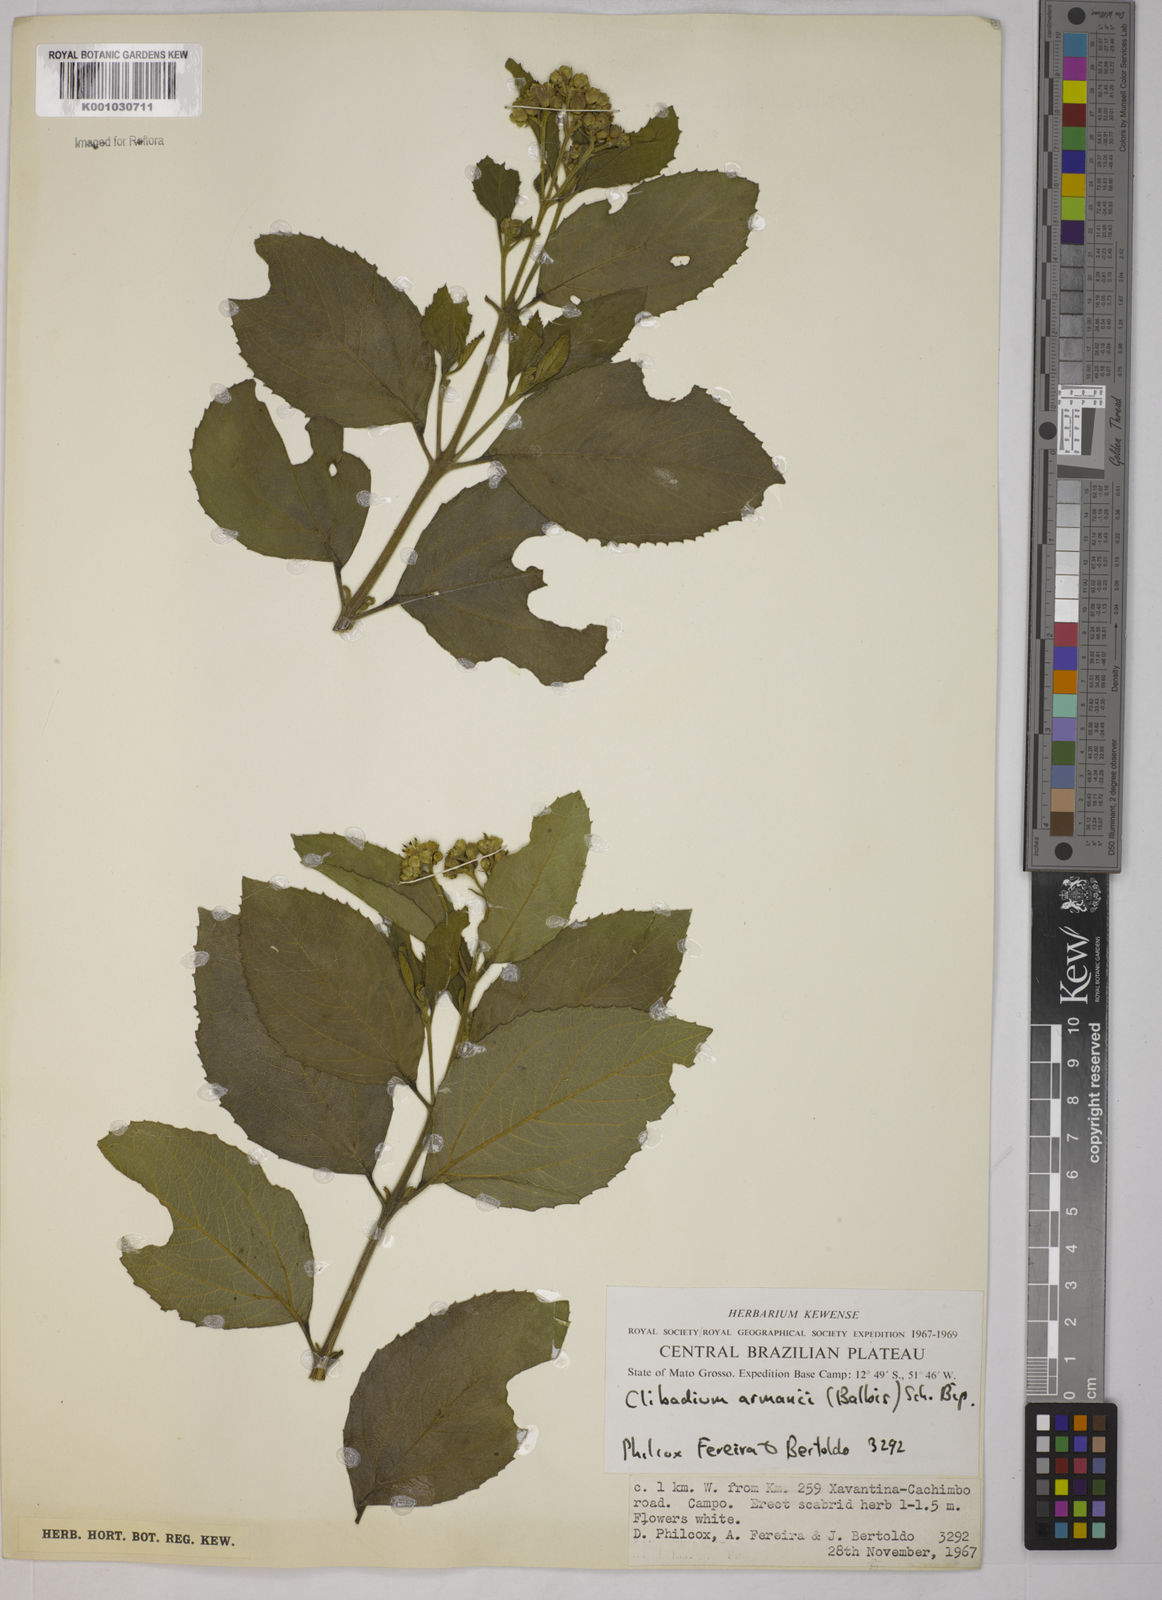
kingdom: Plantae
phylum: Tracheophyta
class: Magnoliopsida
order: Asterales
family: Asteraceae
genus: Clibadium
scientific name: Clibadium armanii
